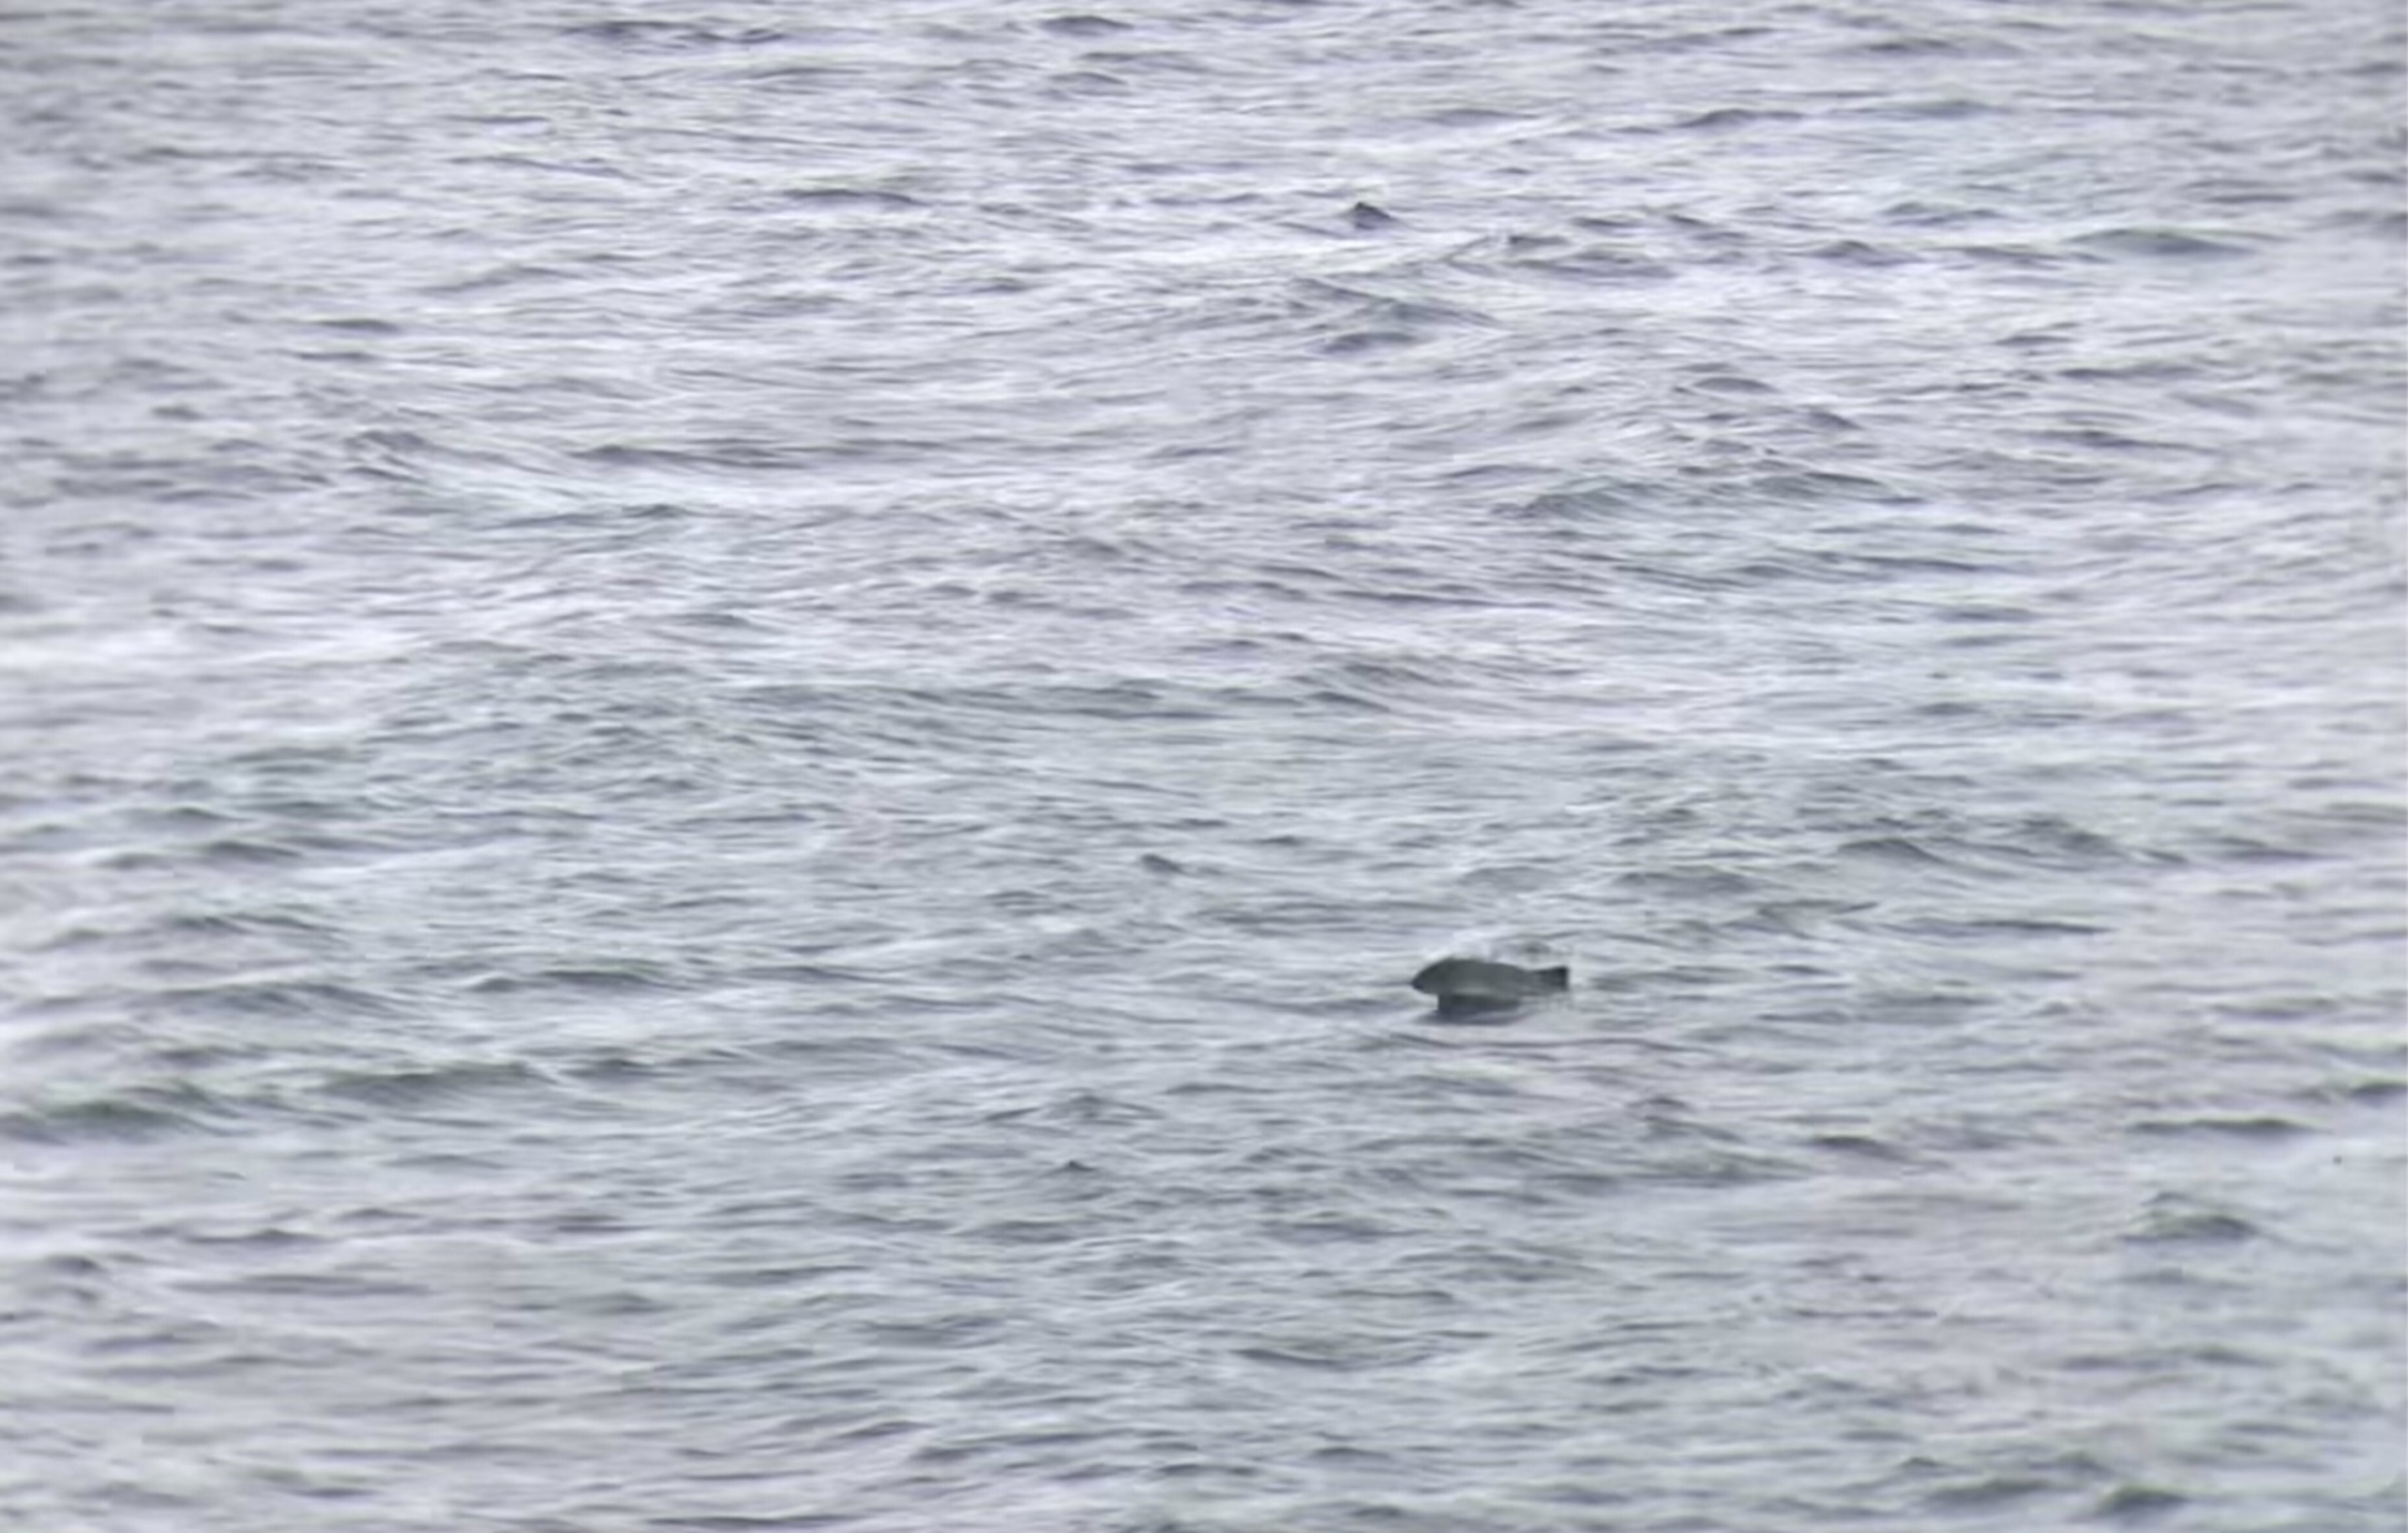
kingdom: Animalia
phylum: Chordata
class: Mammalia
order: Cetacea
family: Phocoenidae
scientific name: Phocoenidae
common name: Marsvin
